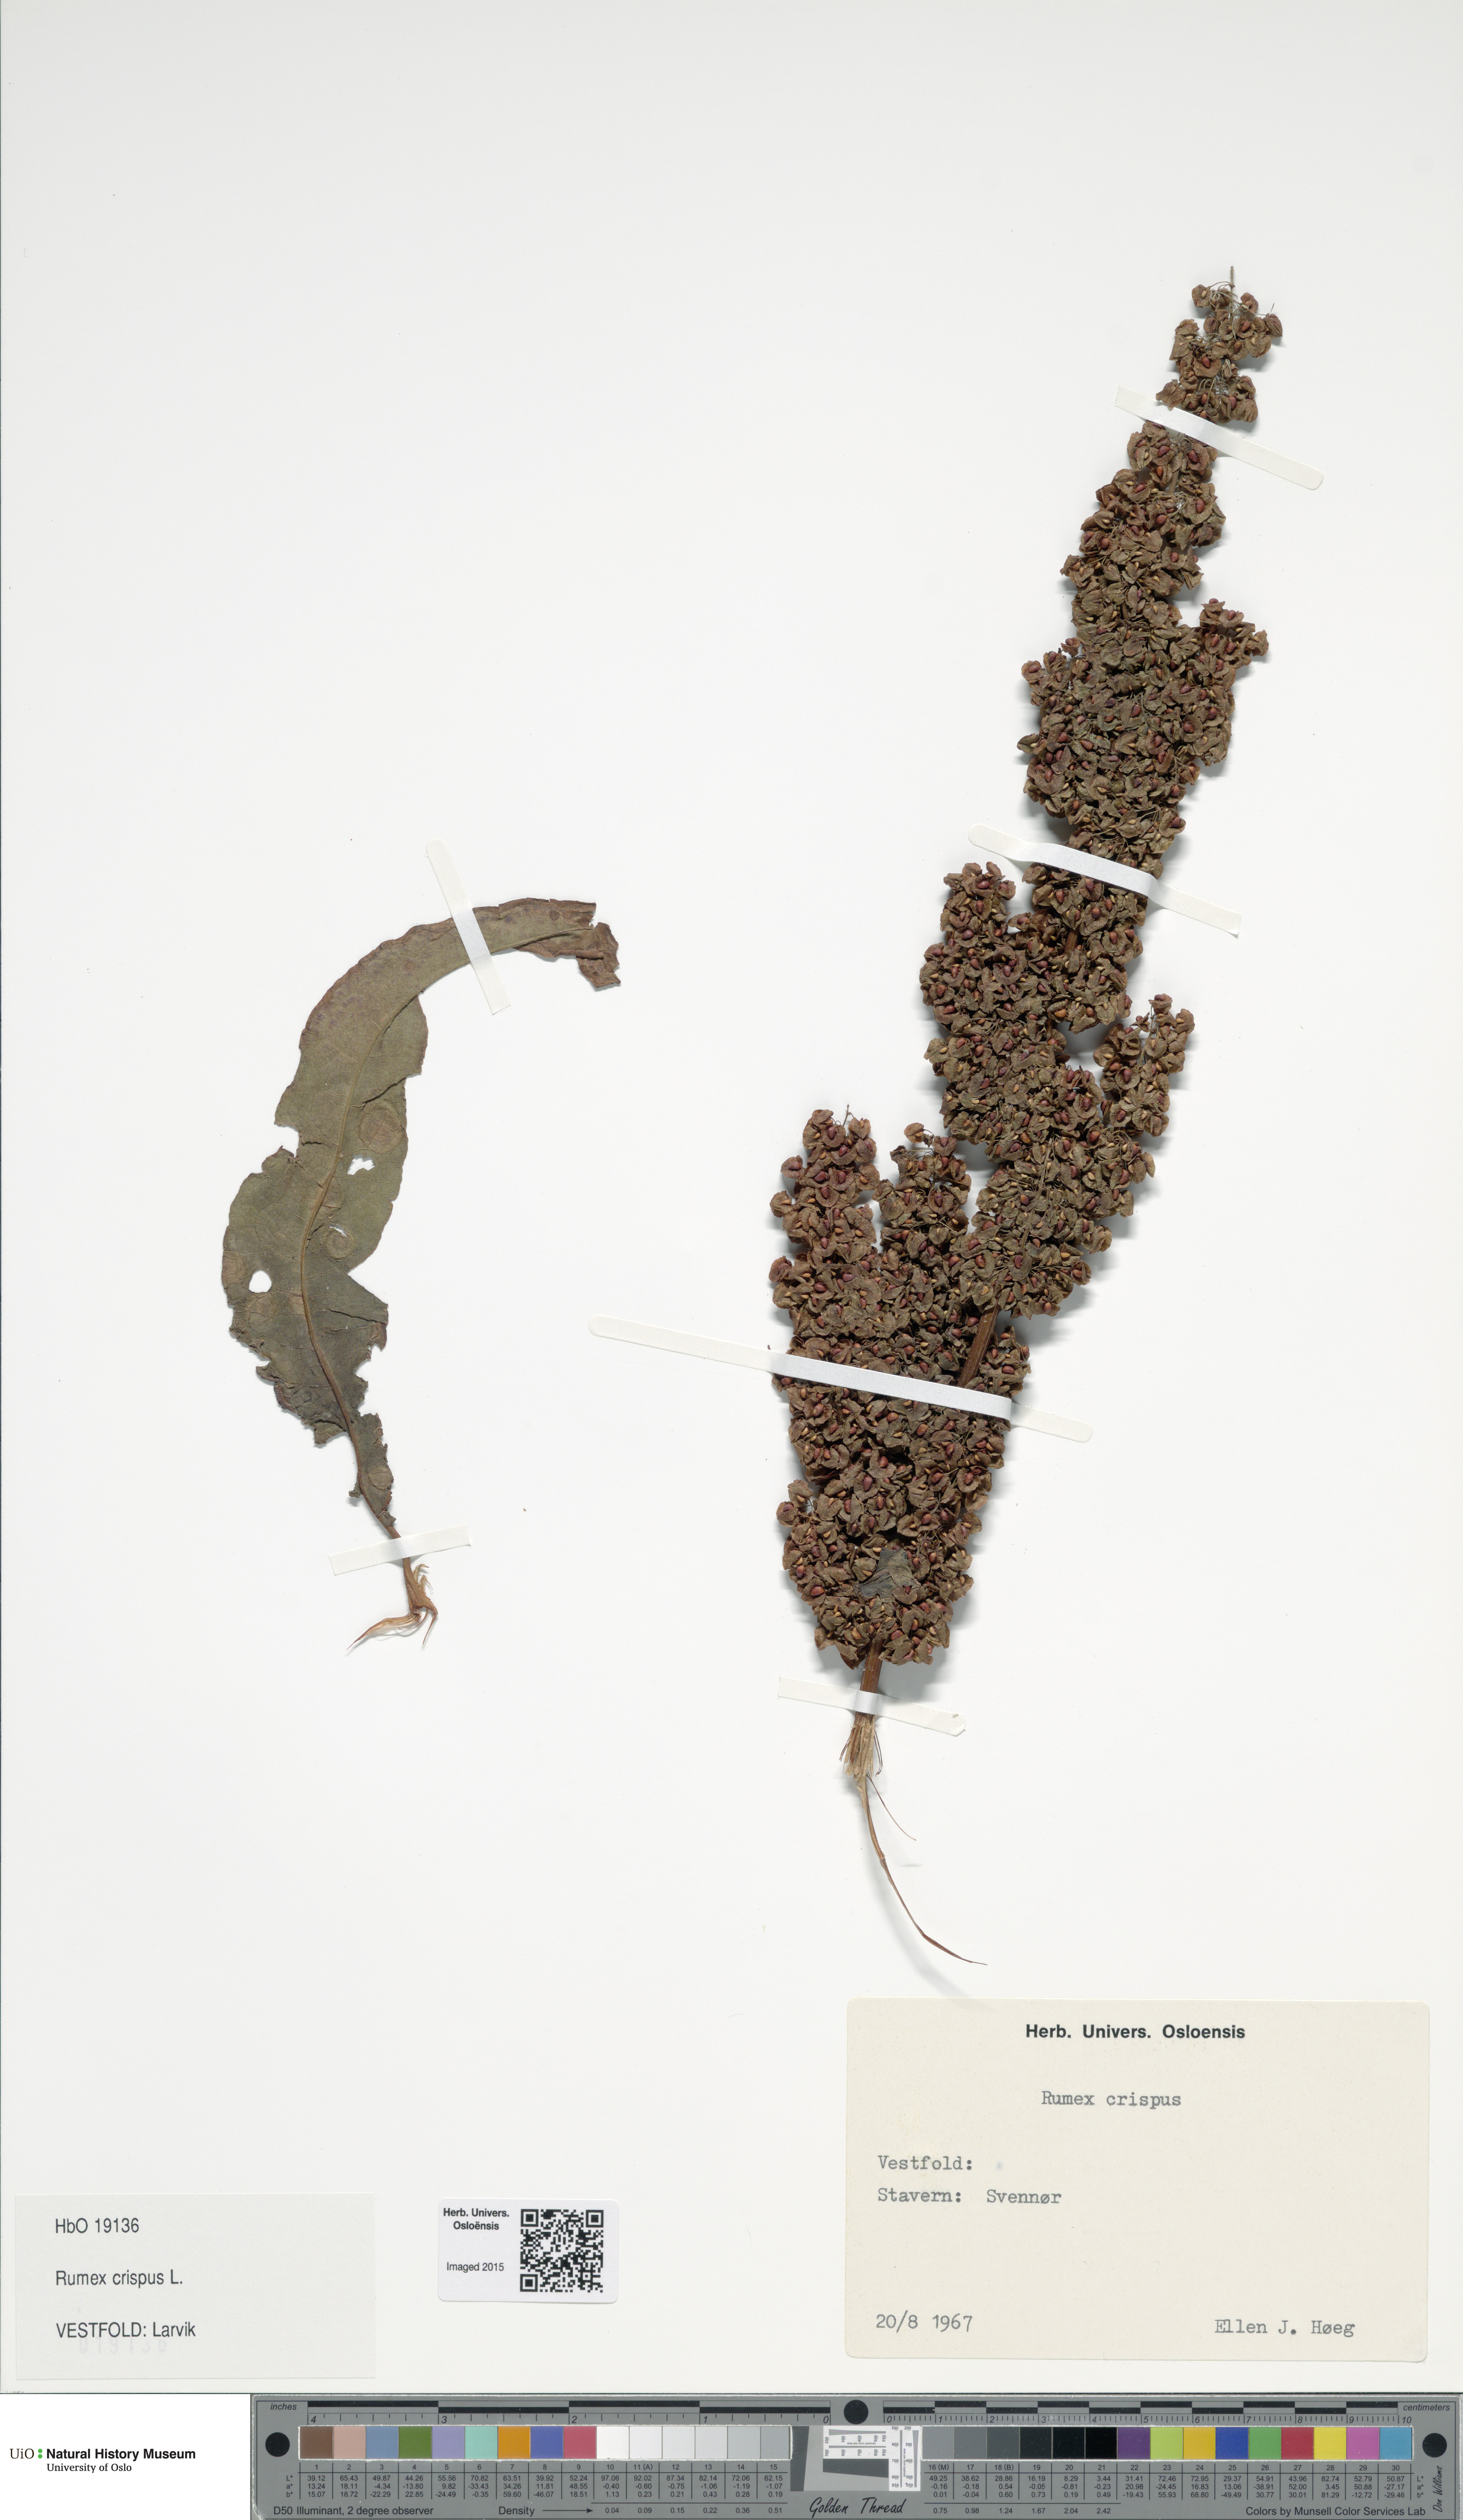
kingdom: Plantae
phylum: Tracheophyta
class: Magnoliopsida
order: Caryophyllales
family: Polygonaceae
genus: Rumex
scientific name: Rumex crispus
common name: Curled dock
